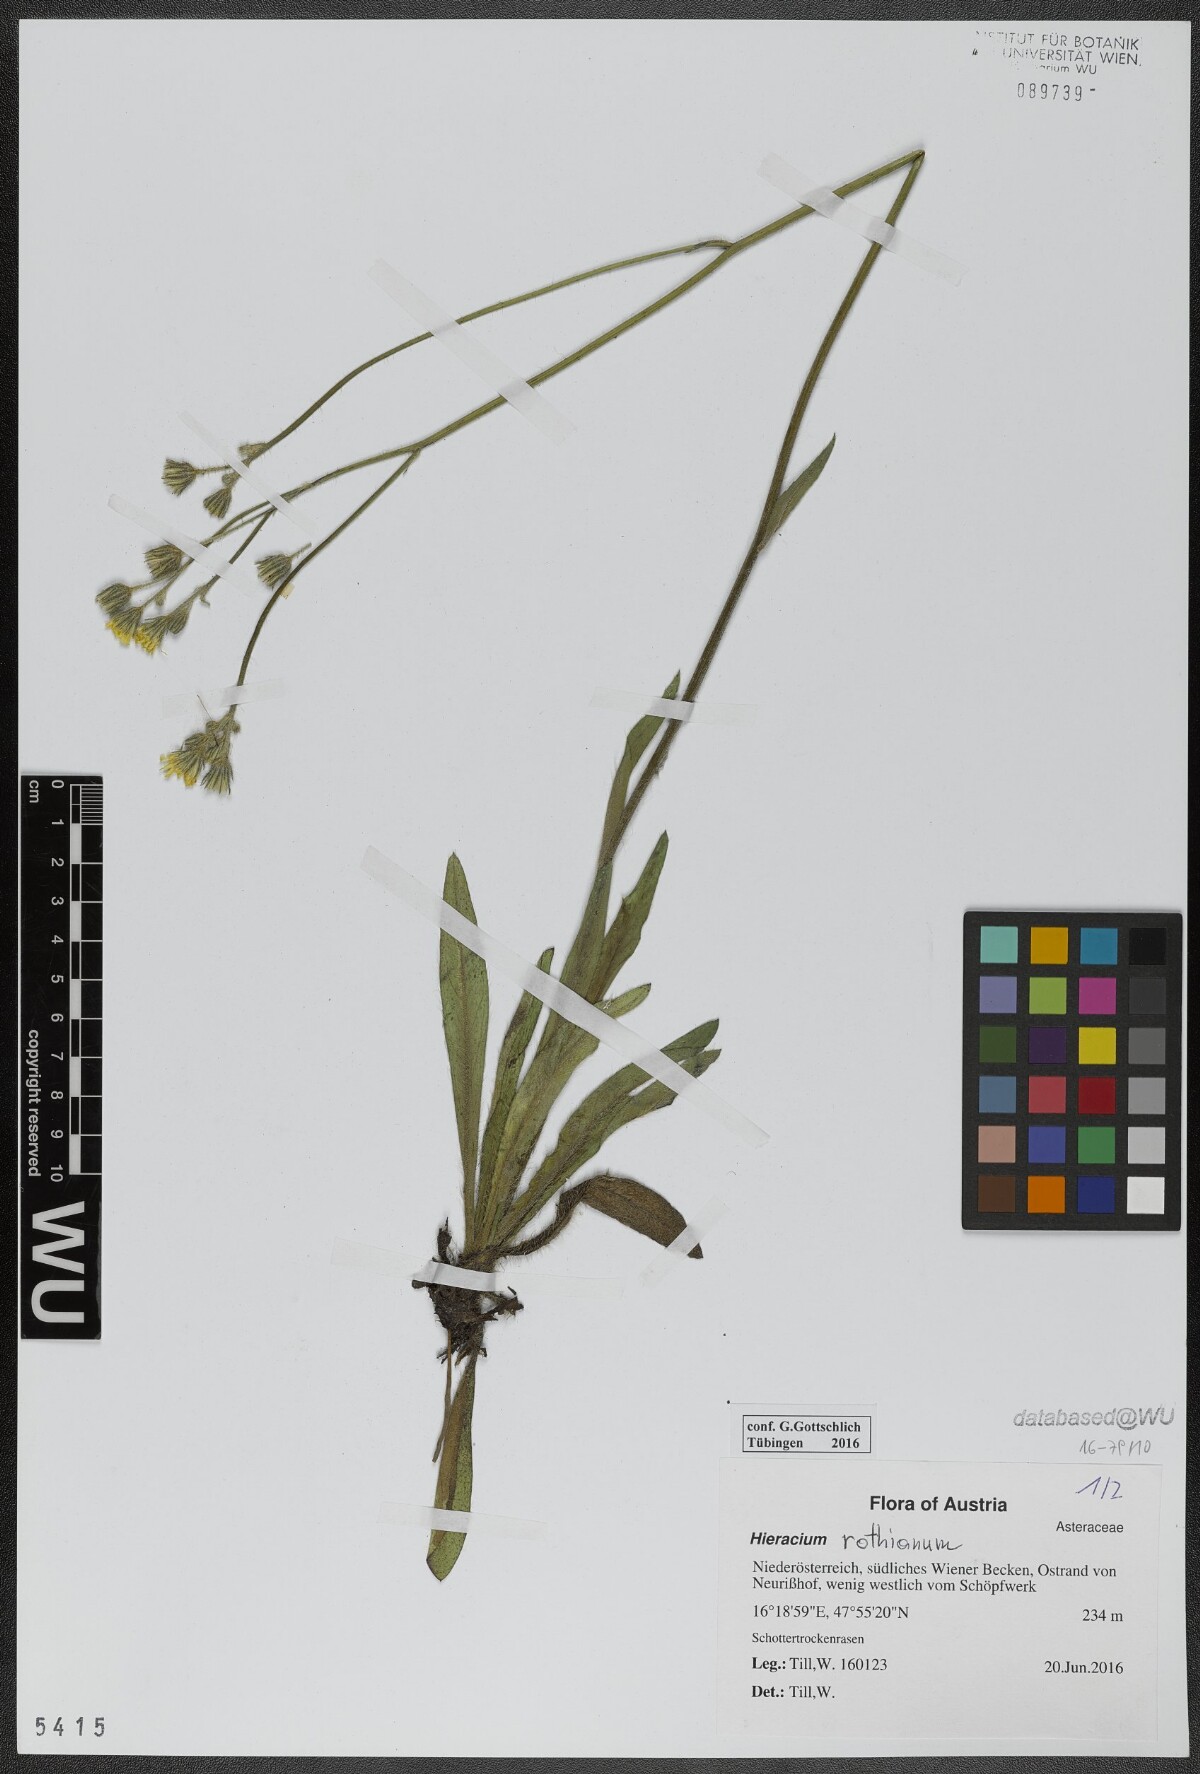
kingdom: Plantae
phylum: Tracheophyta
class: Magnoliopsida
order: Asterales
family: Asteraceae
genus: Pilosella
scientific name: Pilosella rothiana
